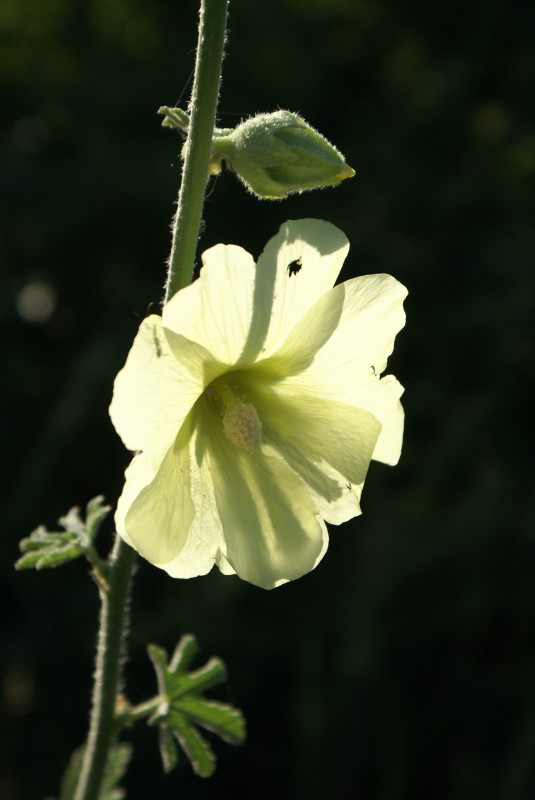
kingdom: Plantae
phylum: Tracheophyta
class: Magnoliopsida
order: Malvales
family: Malvaceae
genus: Alcea
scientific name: Alcea rugosa
